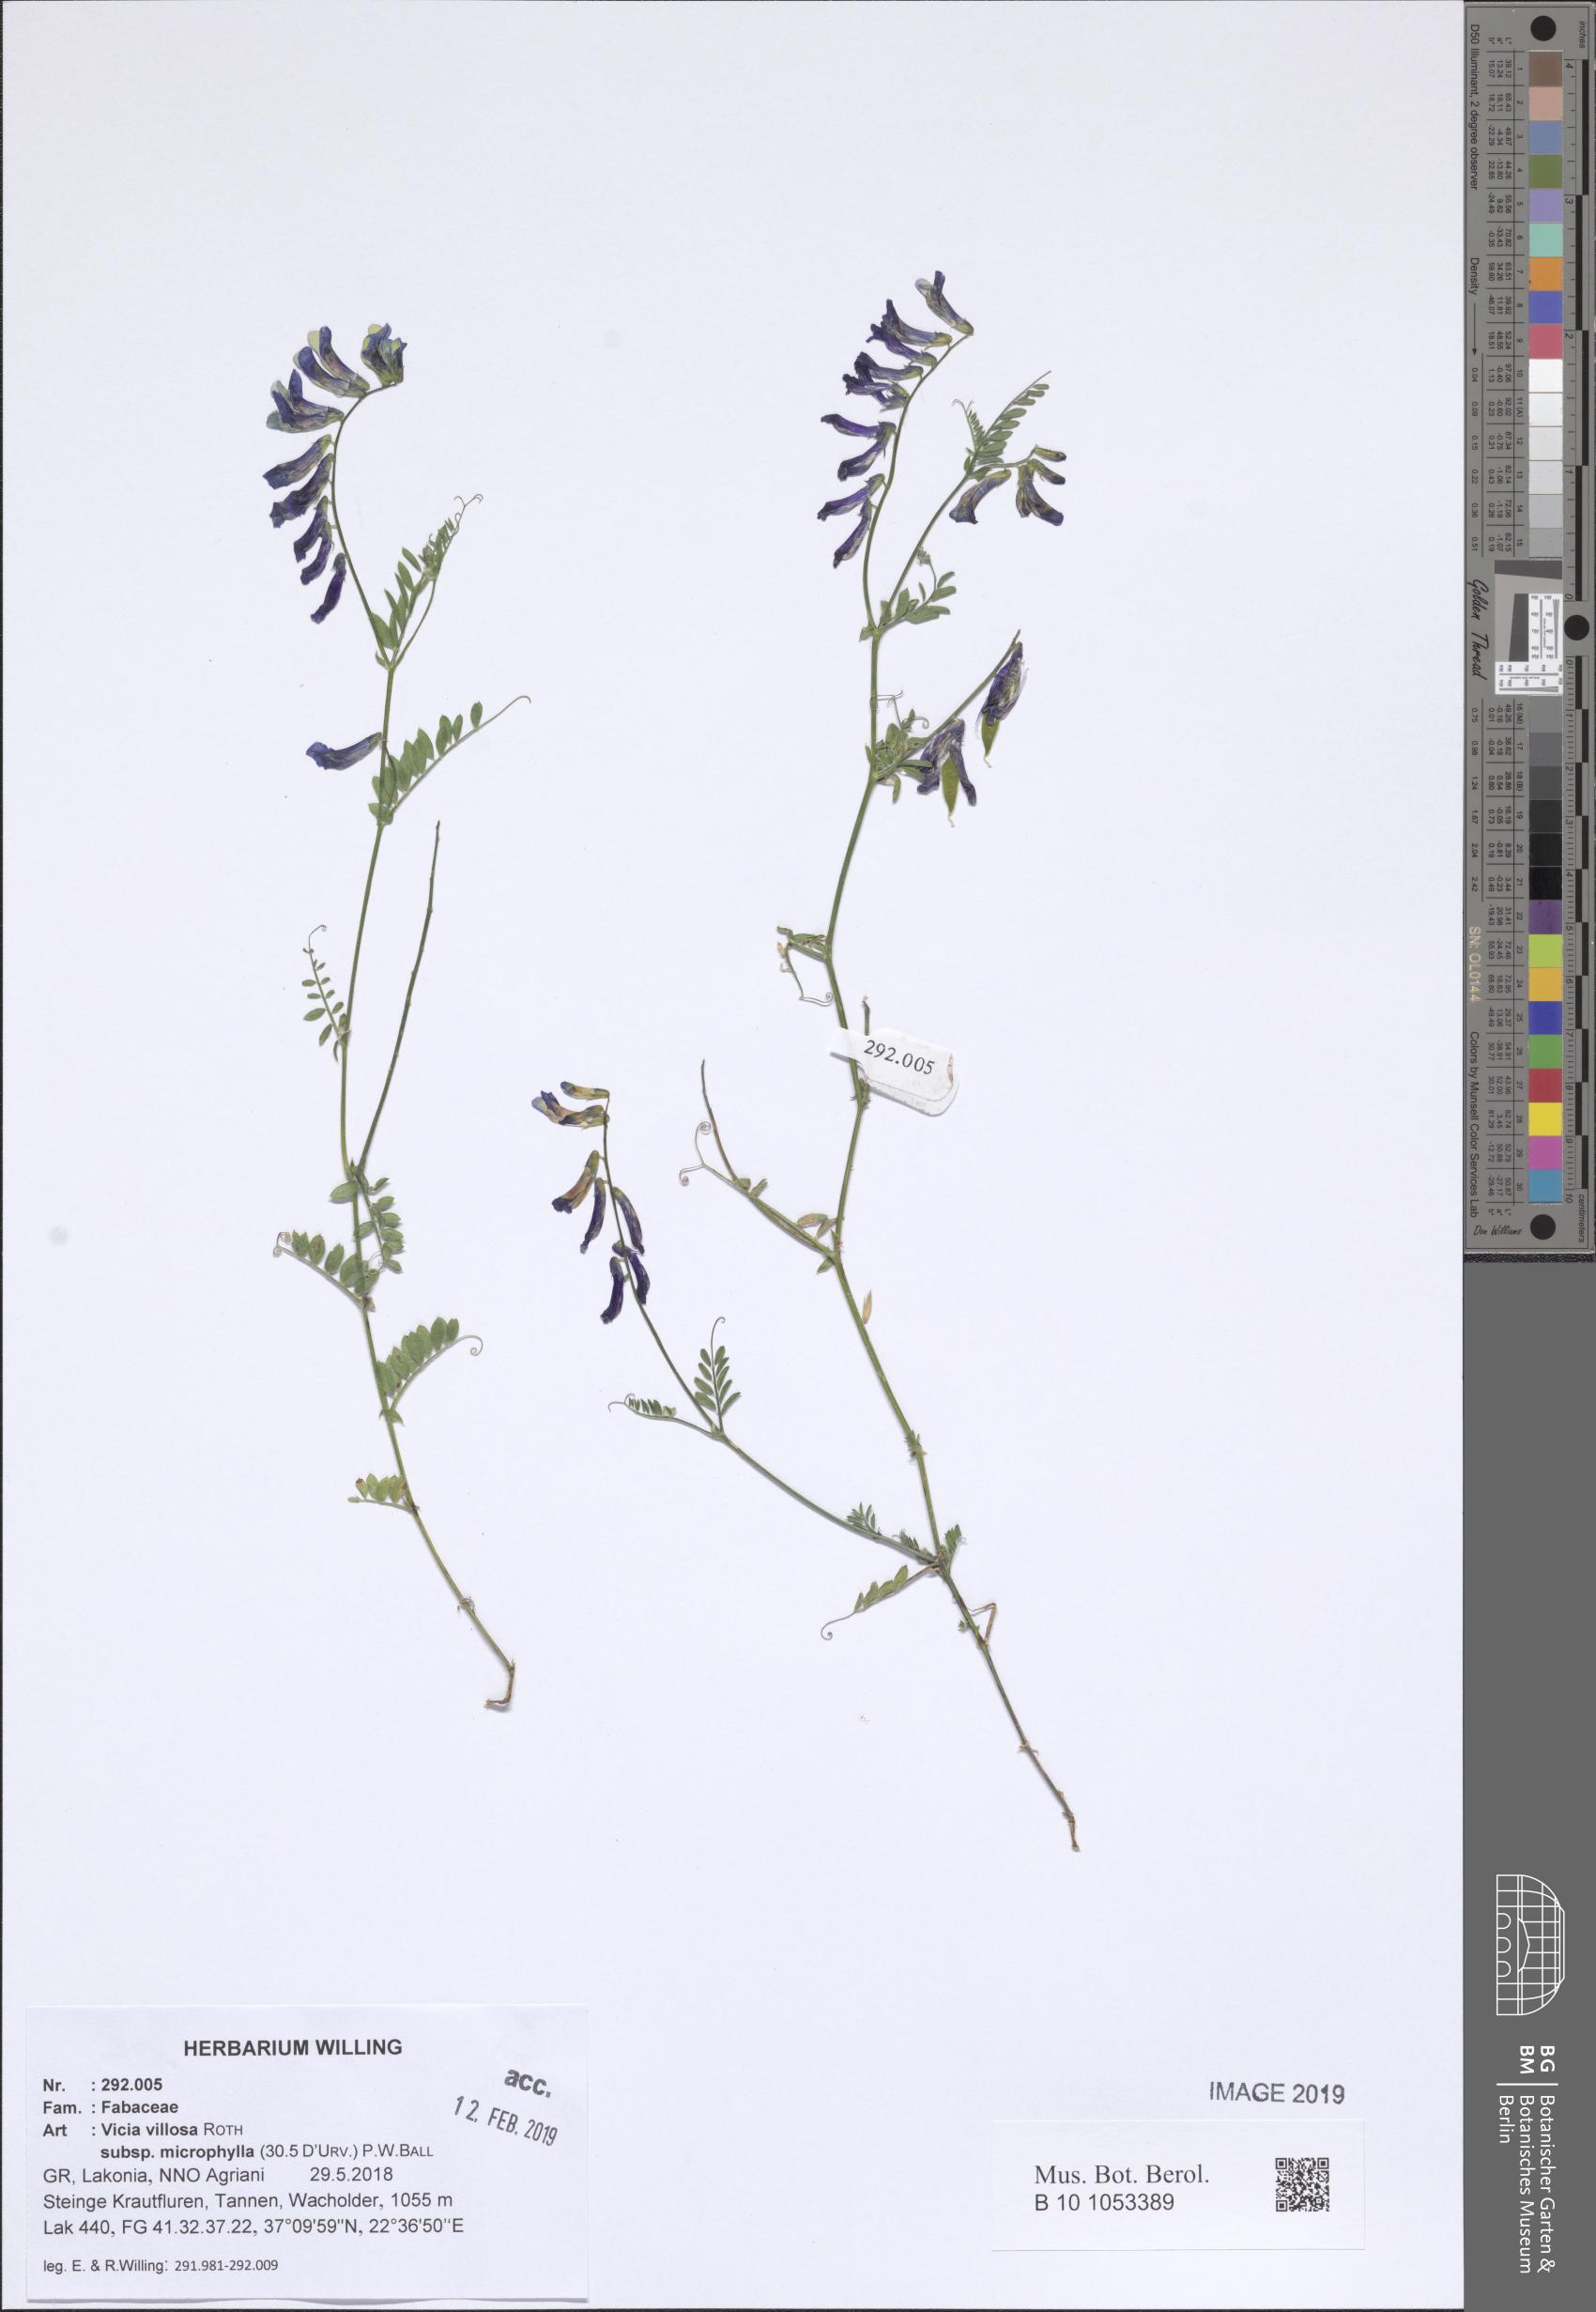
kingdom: Plantae
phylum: Tracheophyta
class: Magnoliopsida
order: Fabales
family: Fabaceae
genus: Vicia
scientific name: Vicia villosa
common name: Fodder vetch
